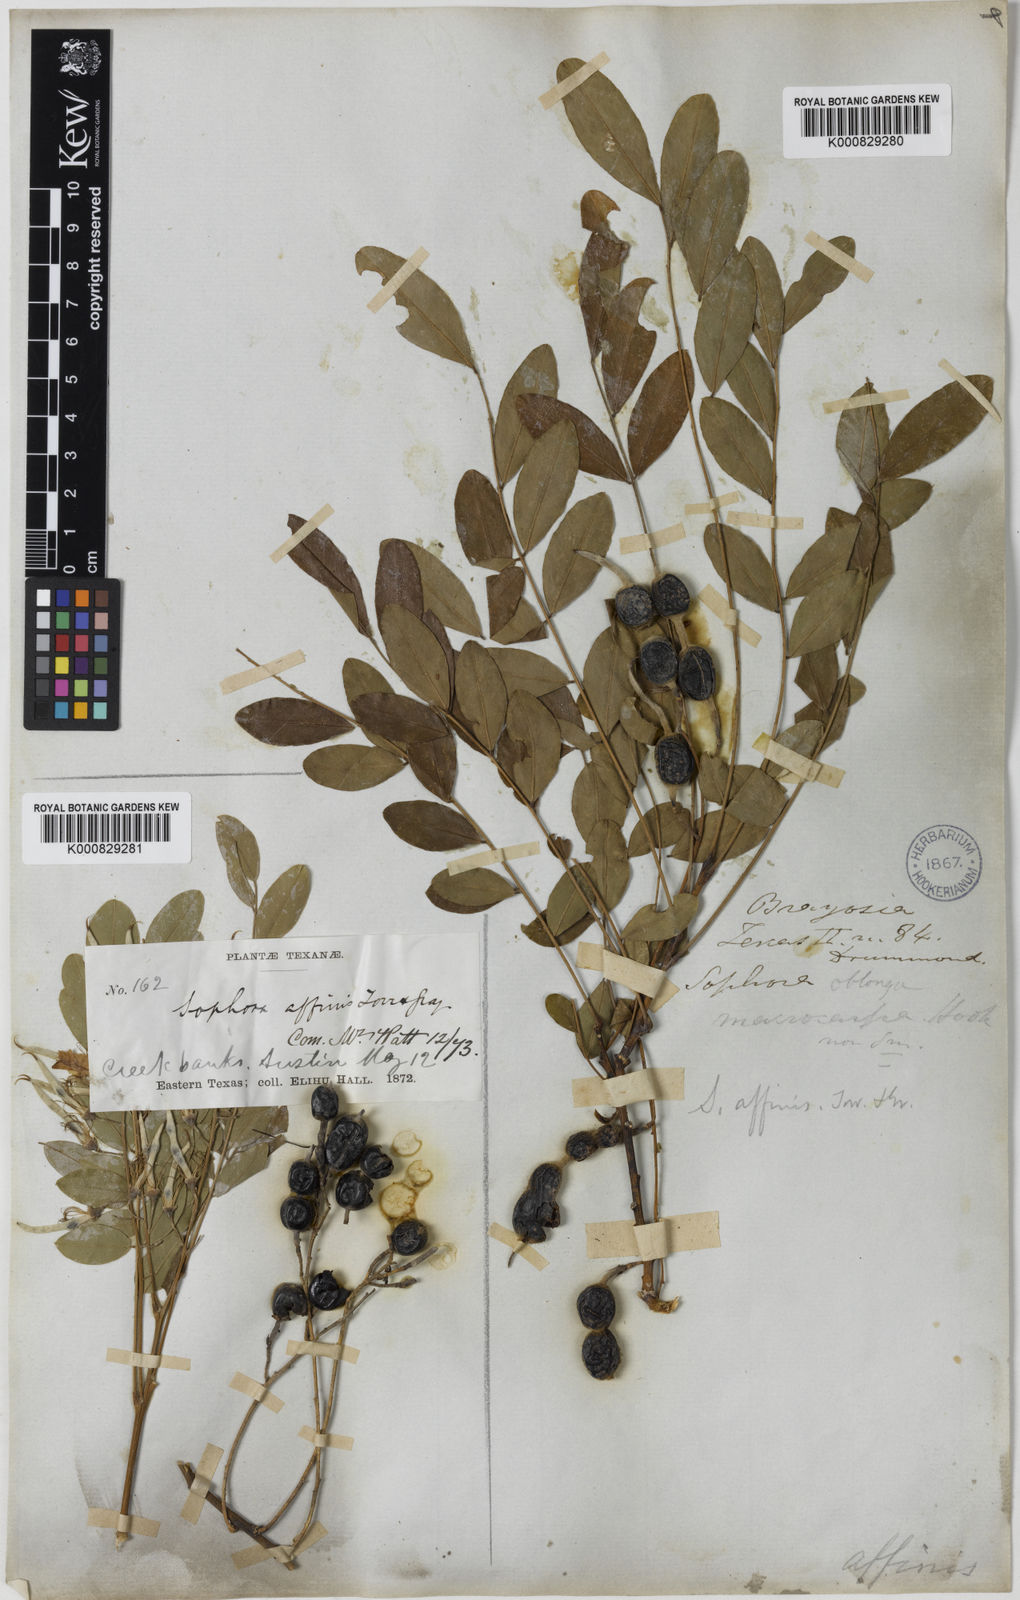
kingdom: Plantae
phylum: Tracheophyta
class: Magnoliopsida
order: Fabales
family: Fabaceae
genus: Styphnolobium
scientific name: Styphnolobium affine
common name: Texas sophora
